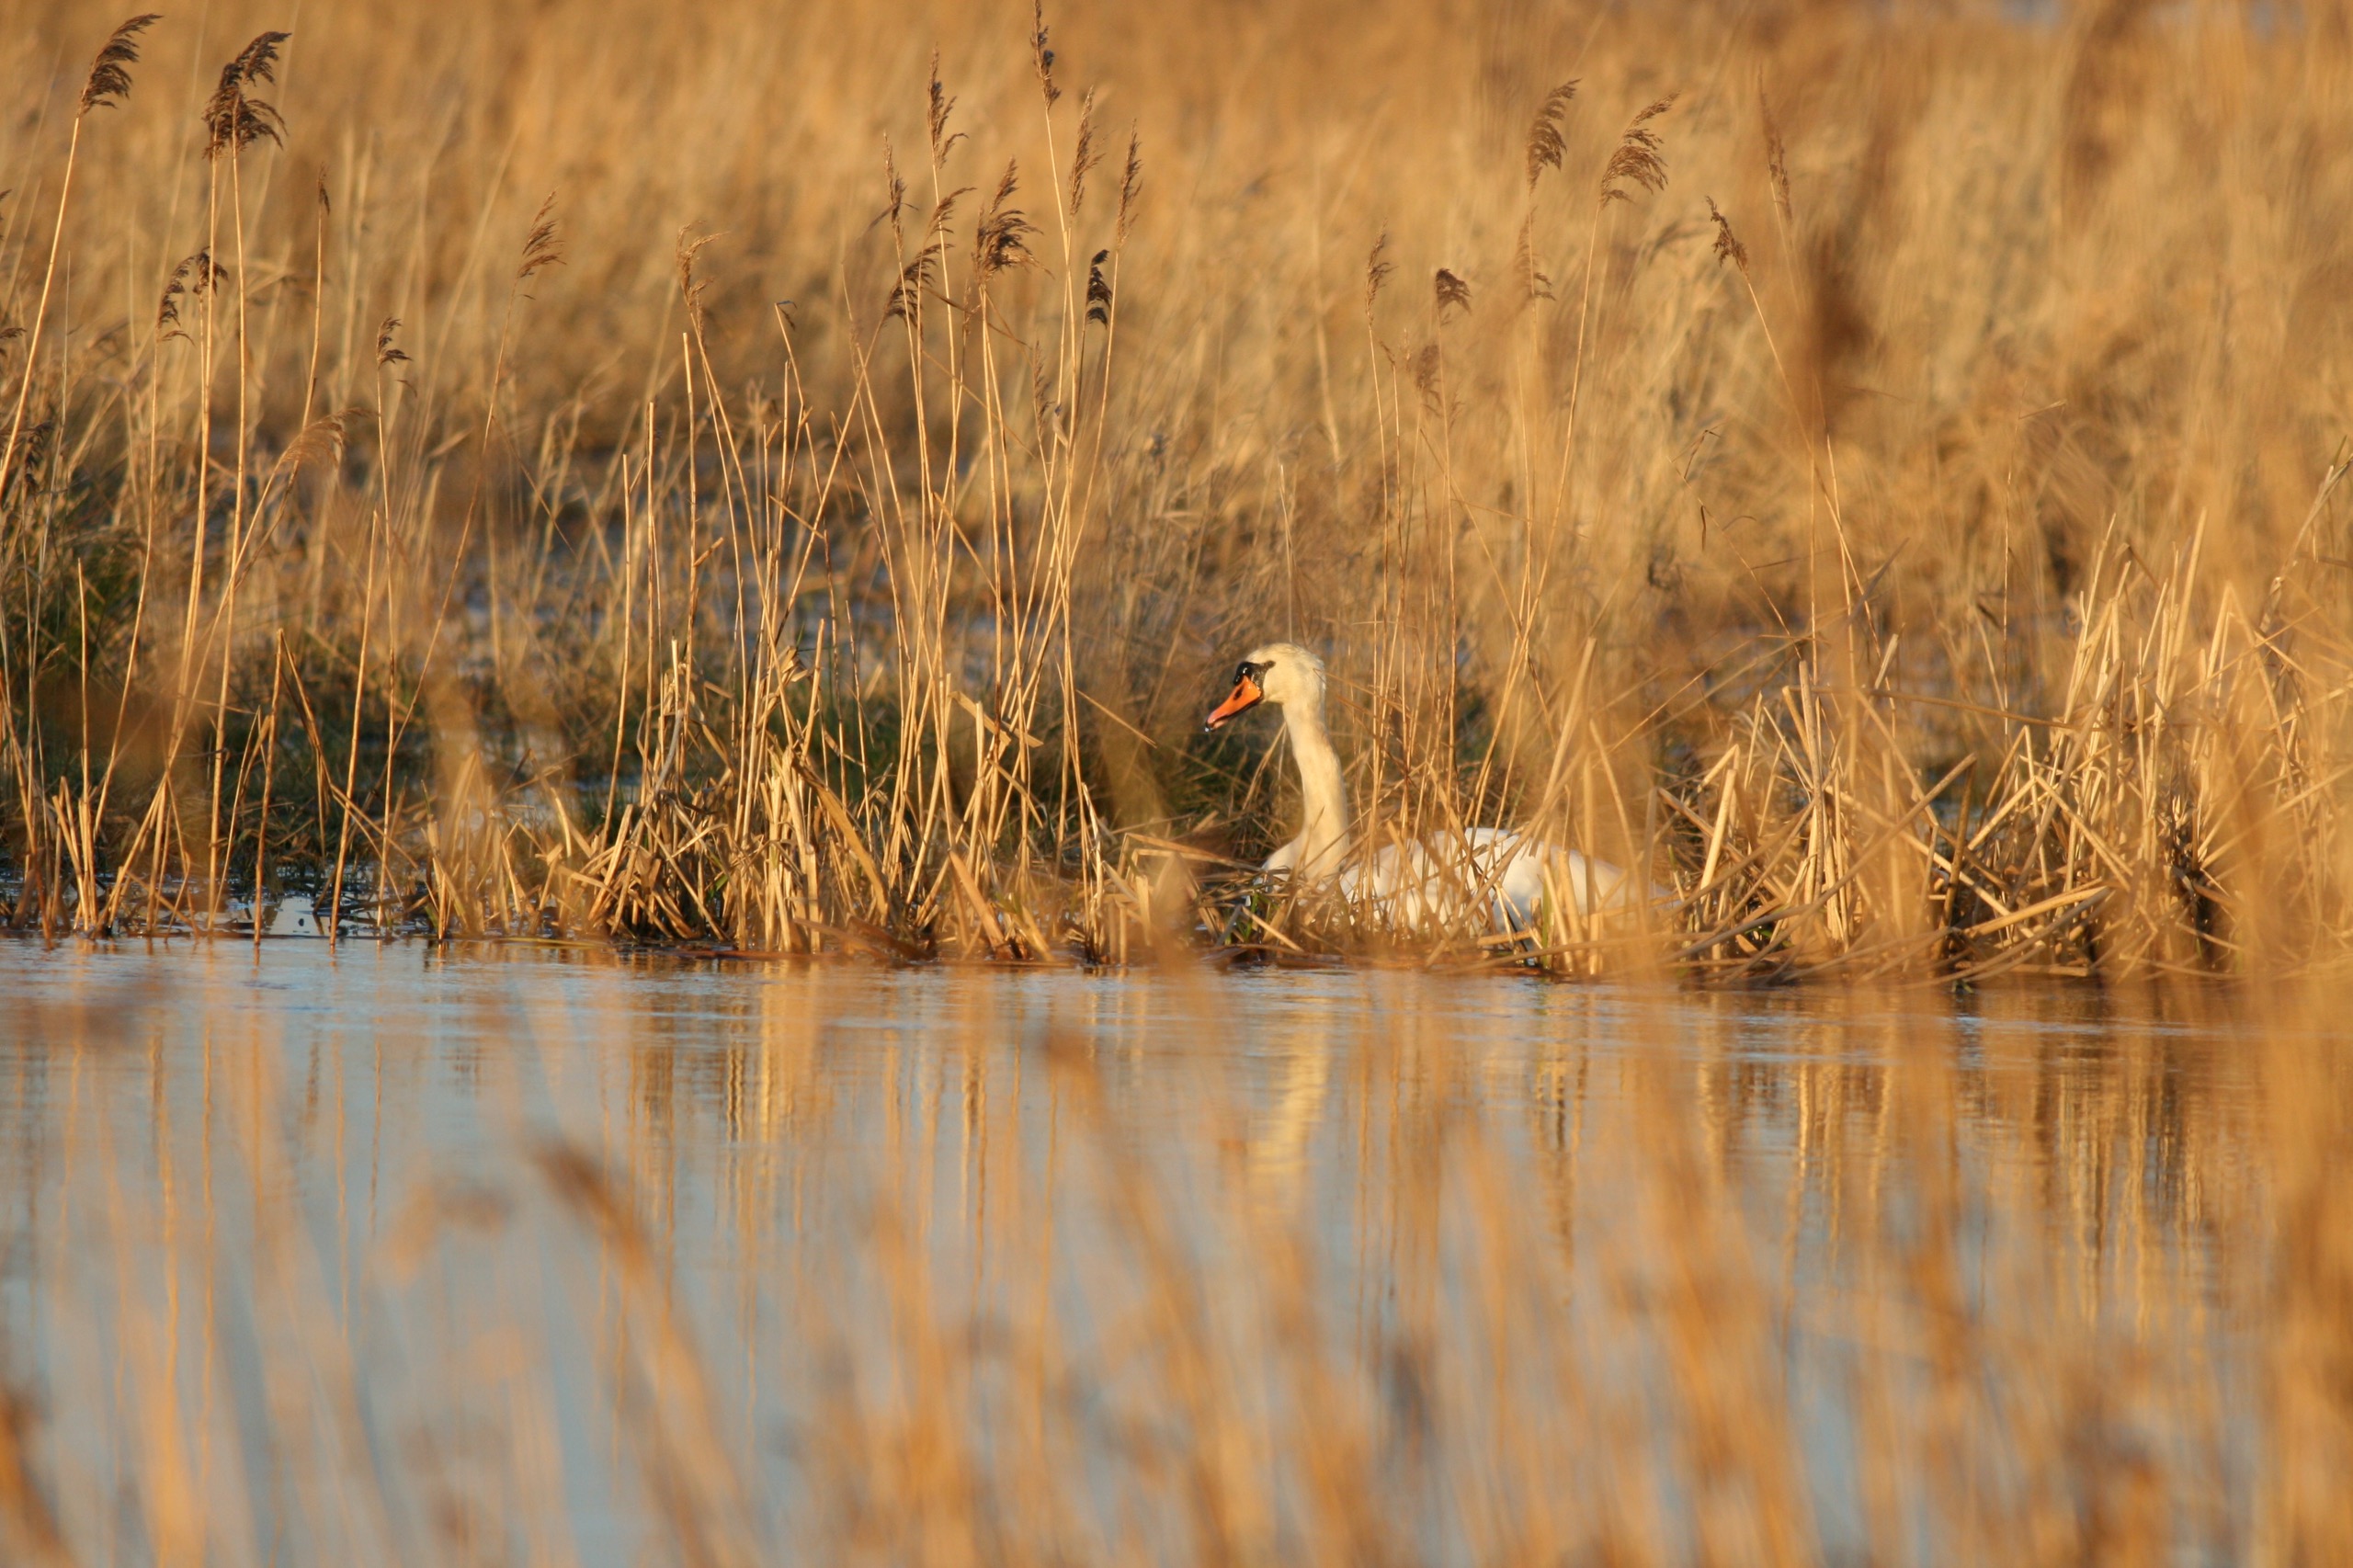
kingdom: Animalia
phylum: Chordata
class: Aves
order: Anseriformes
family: Anatidae
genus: Cygnus
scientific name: Cygnus olor
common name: Knopsvane
